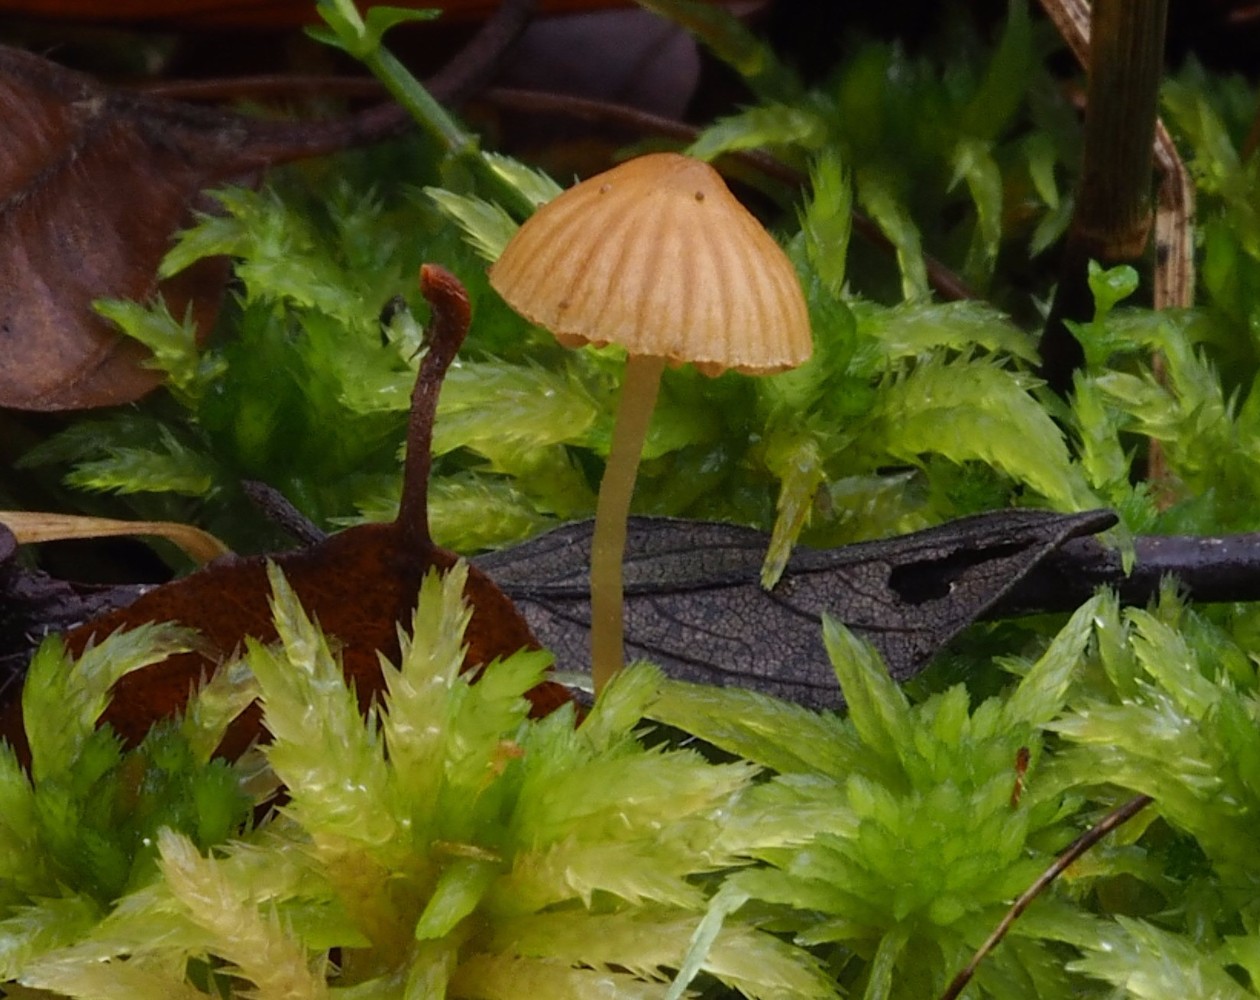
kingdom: Fungi
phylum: Basidiomycota
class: Agaricomycetes
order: Agaricales
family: Hymenogastraceae
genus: Galerina
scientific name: Galerina
